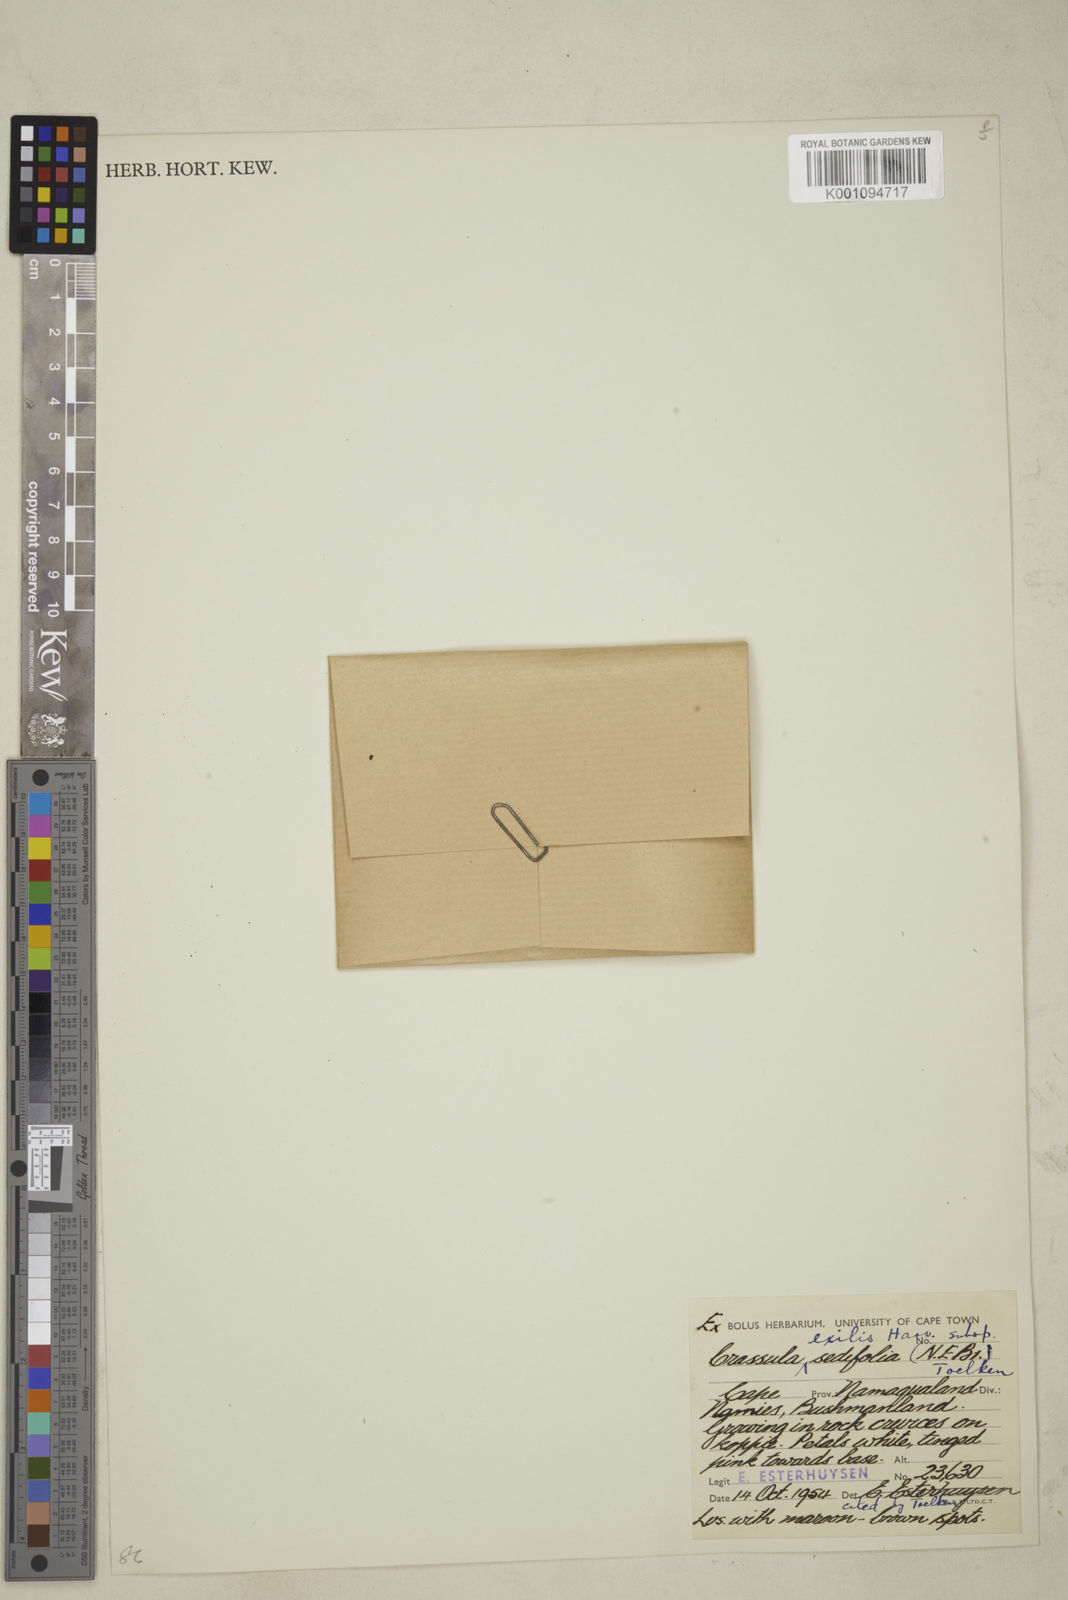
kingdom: Plantae
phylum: Tracheophyta
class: Magnoliopsida
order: Saxifragales
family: Crassulaceae
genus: Crassula
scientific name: Crassula exilis
